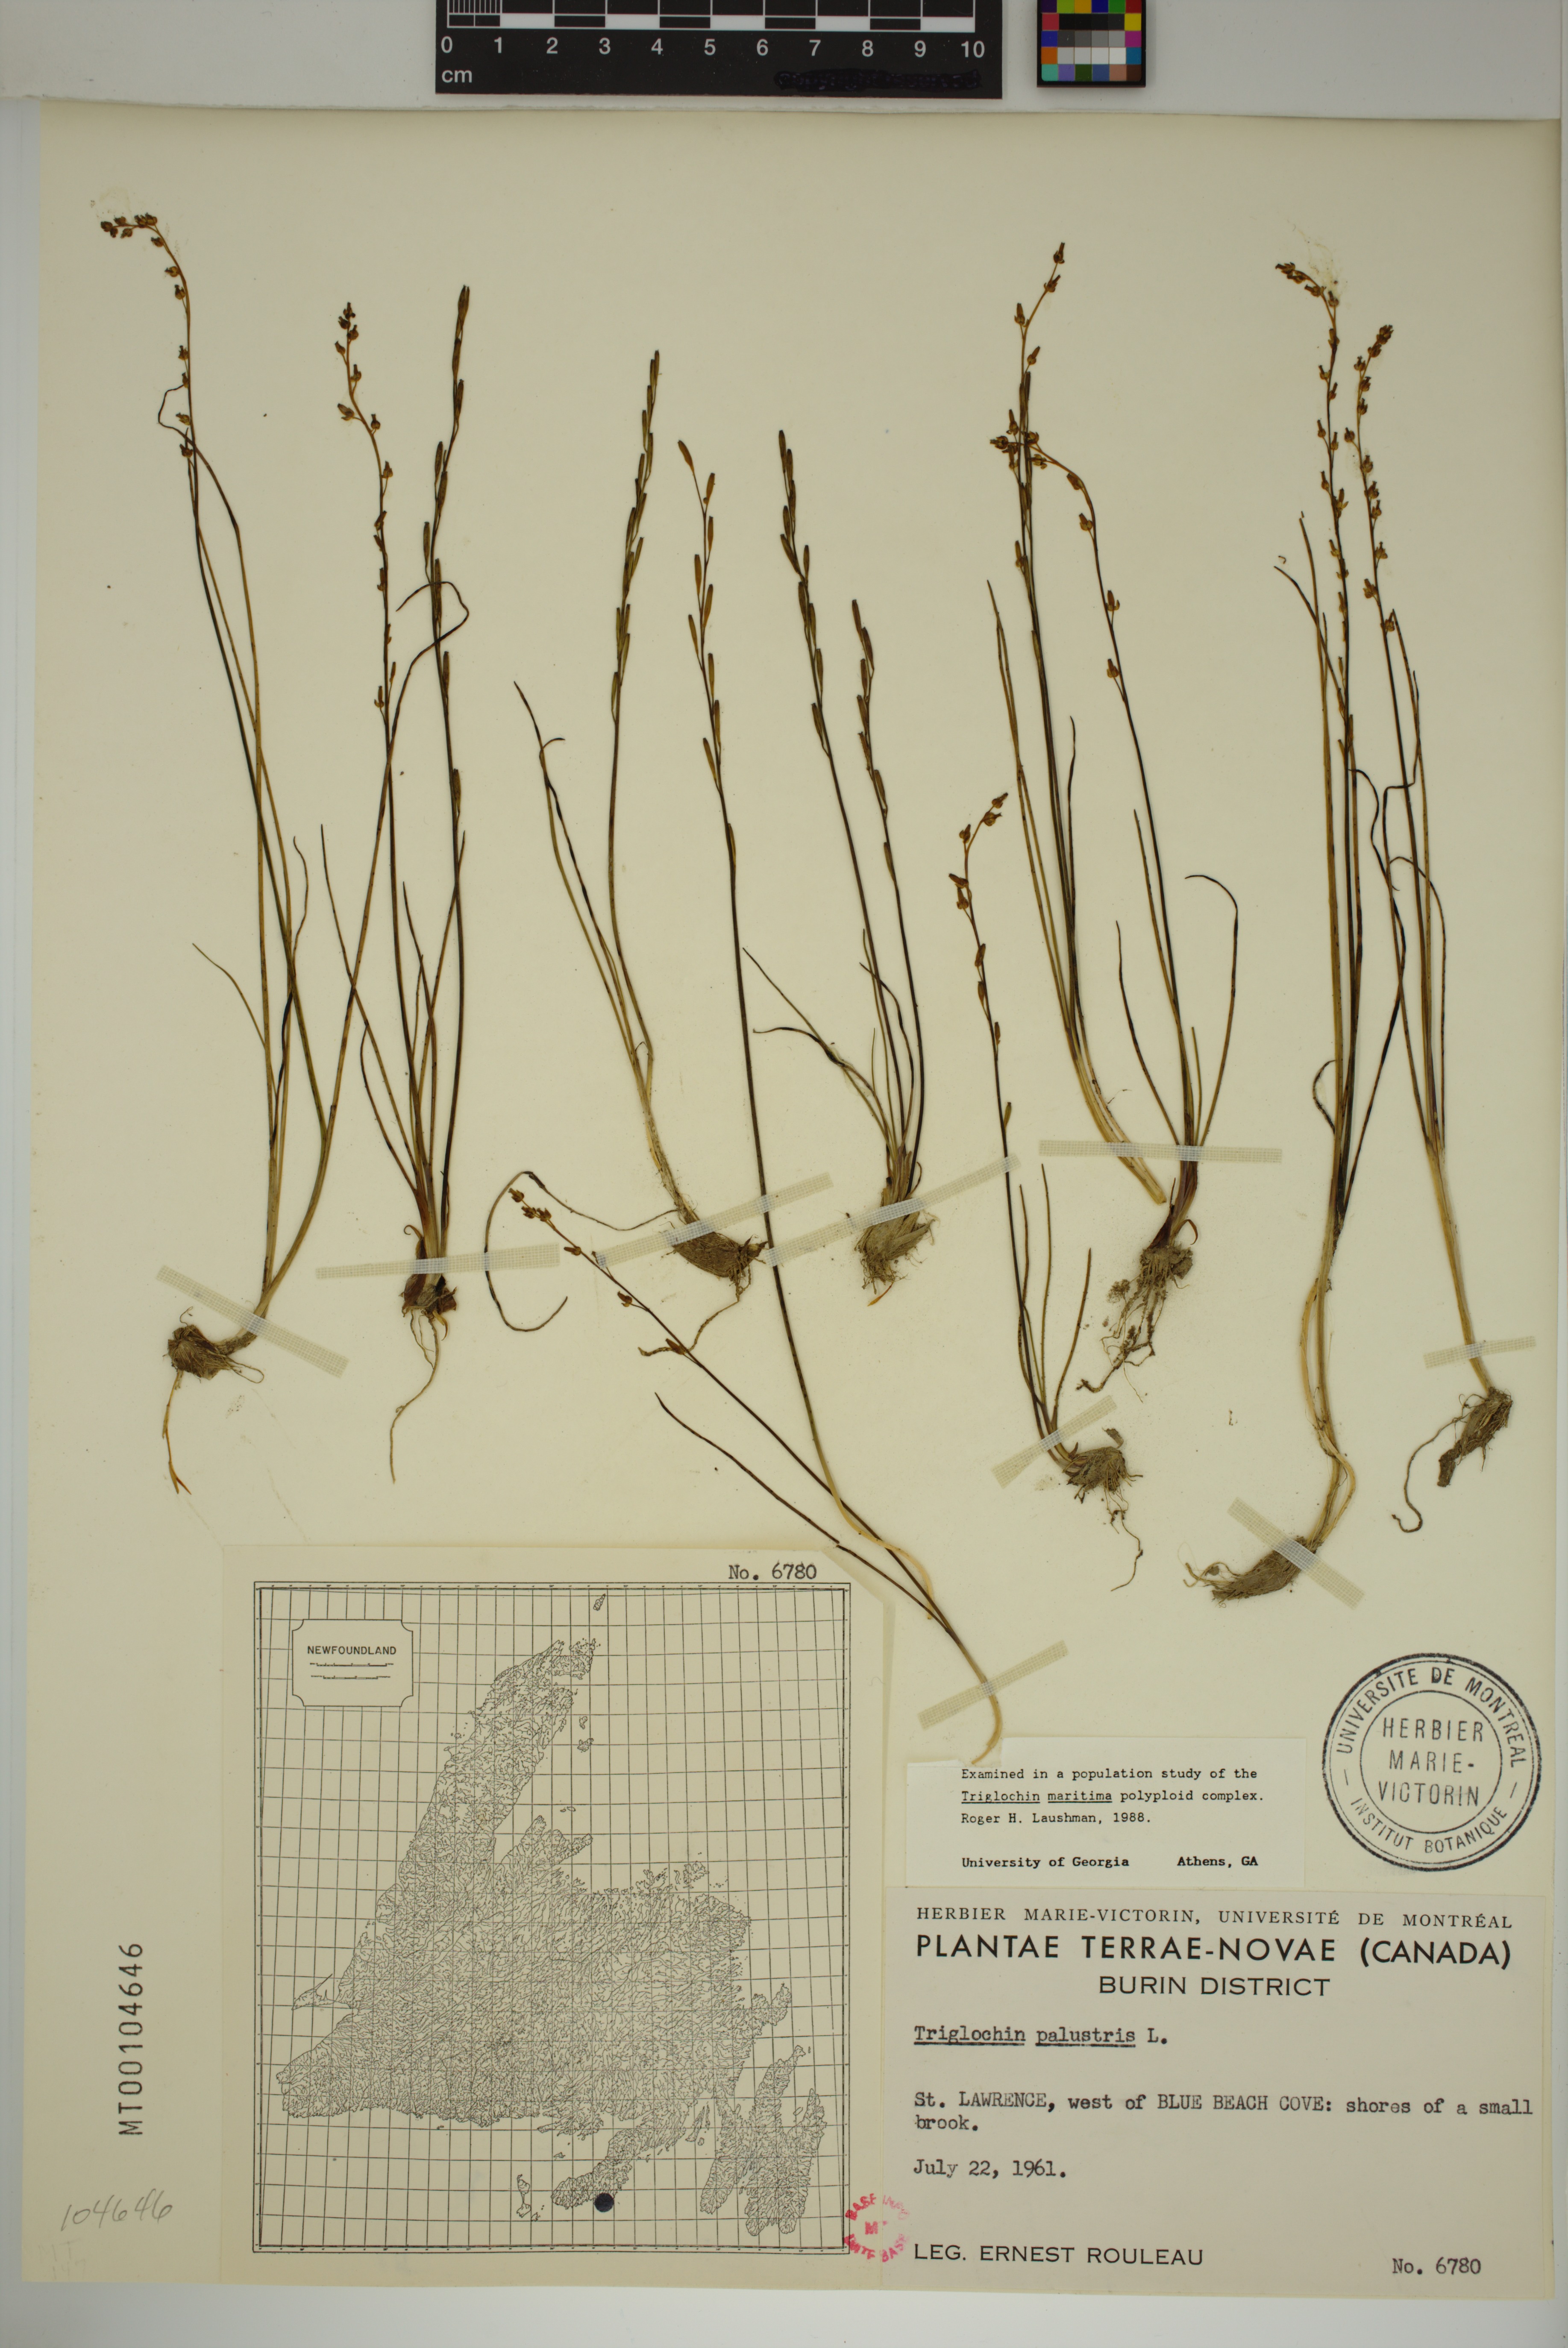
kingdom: Plantae
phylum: Tracheophyta
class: Liliopsida
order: Alismatales
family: Juncaginaceae
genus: Triglochin
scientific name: Triglochin palustris
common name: Marsh arrowgrass
